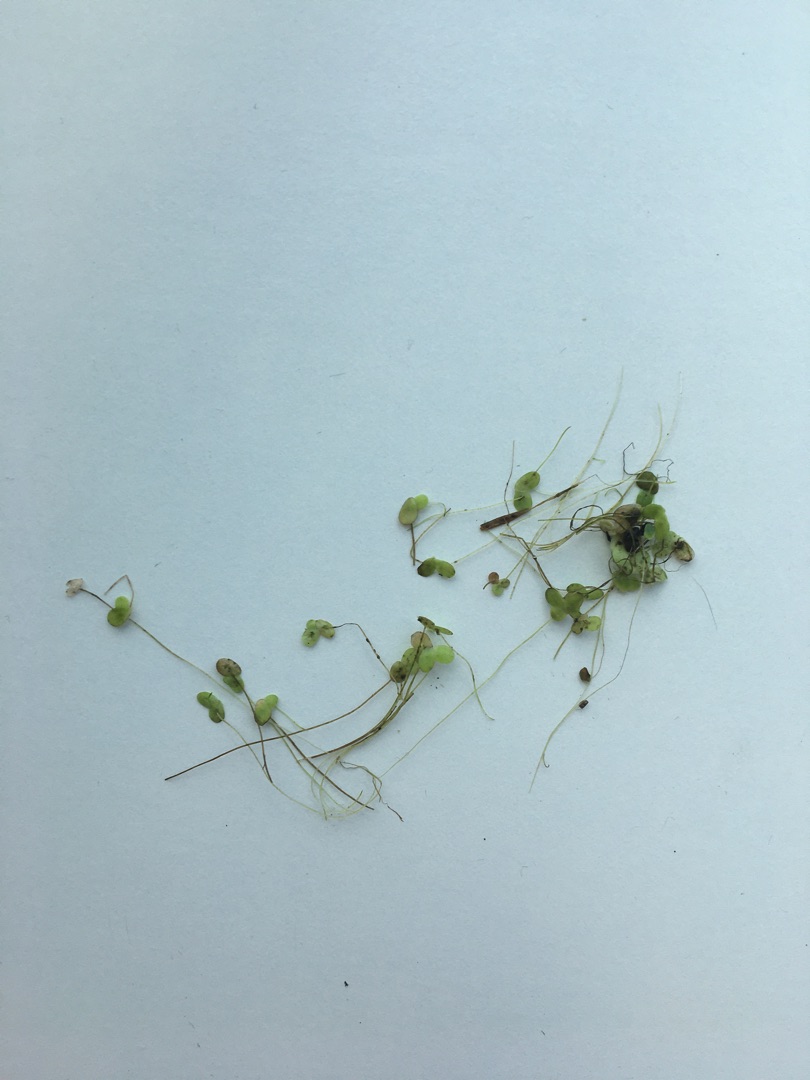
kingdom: Plantae
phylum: Tracheophyta
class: Liliopsida
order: Alismatales
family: Araceae
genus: Lemna
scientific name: Lemna minor
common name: Liden andemad
